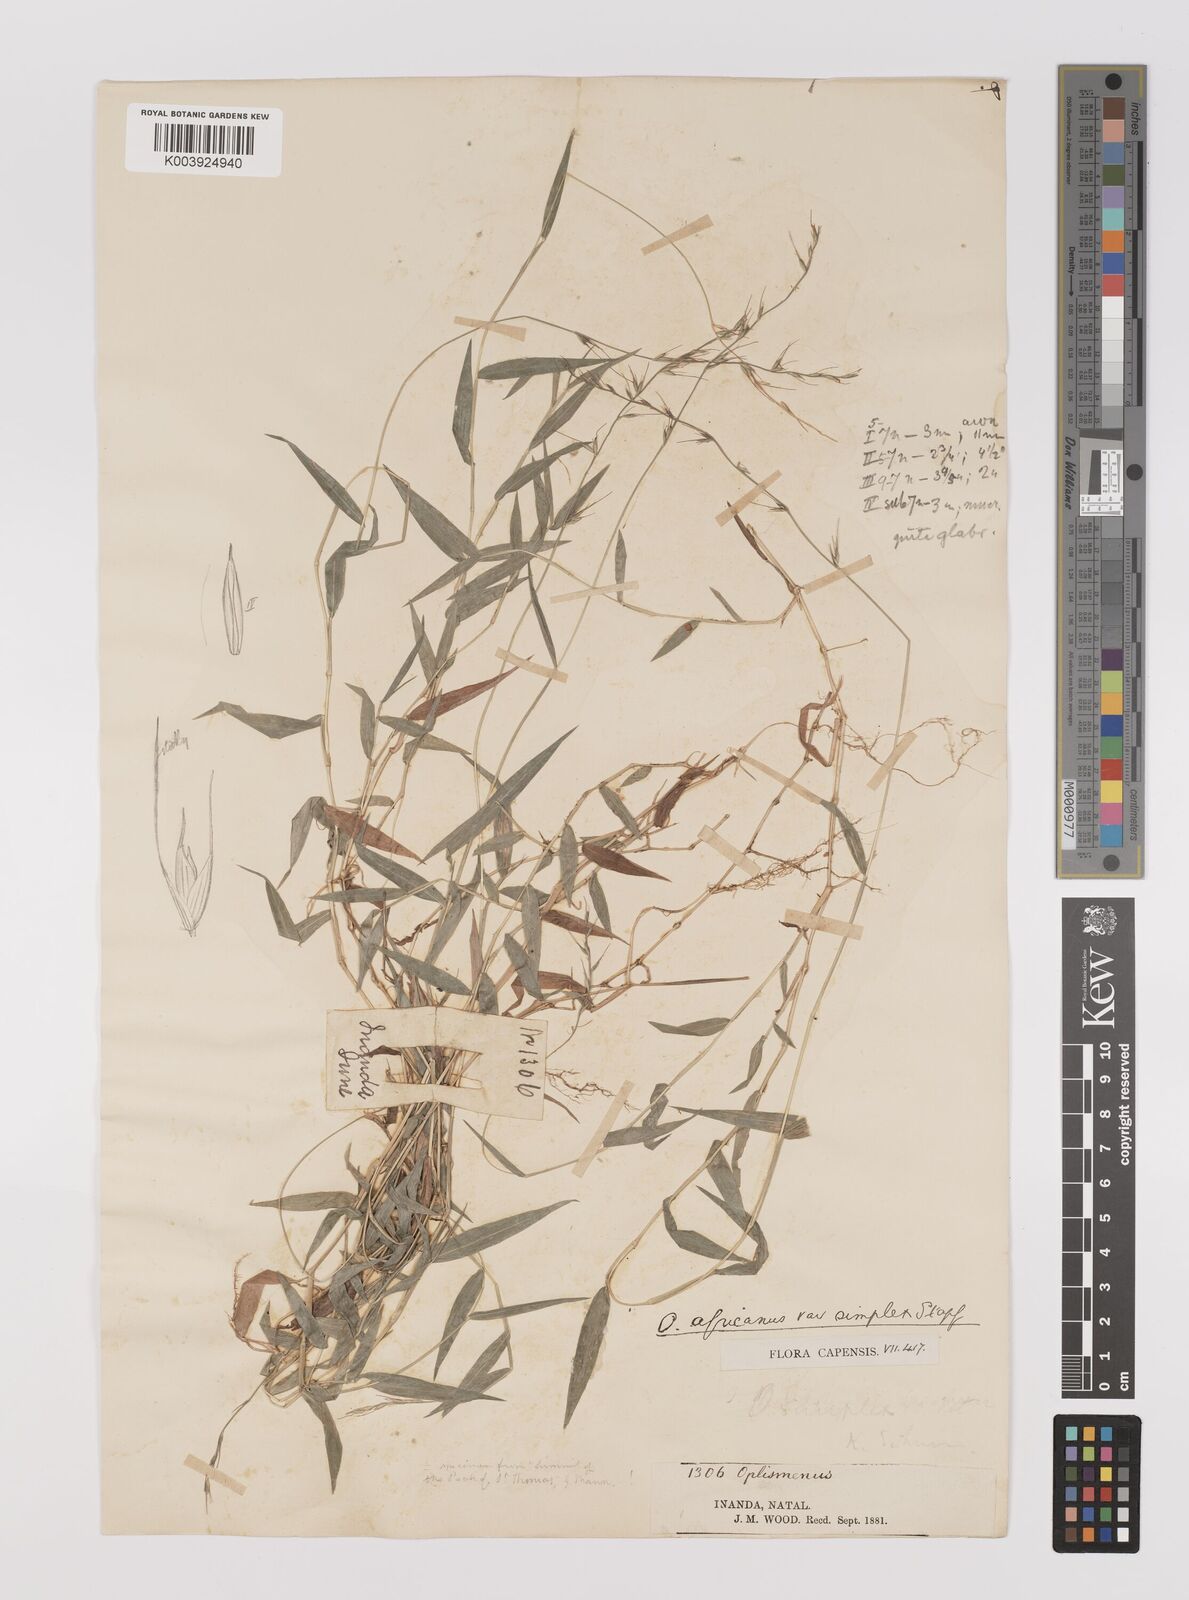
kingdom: Plantae
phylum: Tracheophyta
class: Liliopsida
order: Poales
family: Poaceae
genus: Oplismenus
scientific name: Oplismenus undulatifolius
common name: Wavyleaf basketgrass
